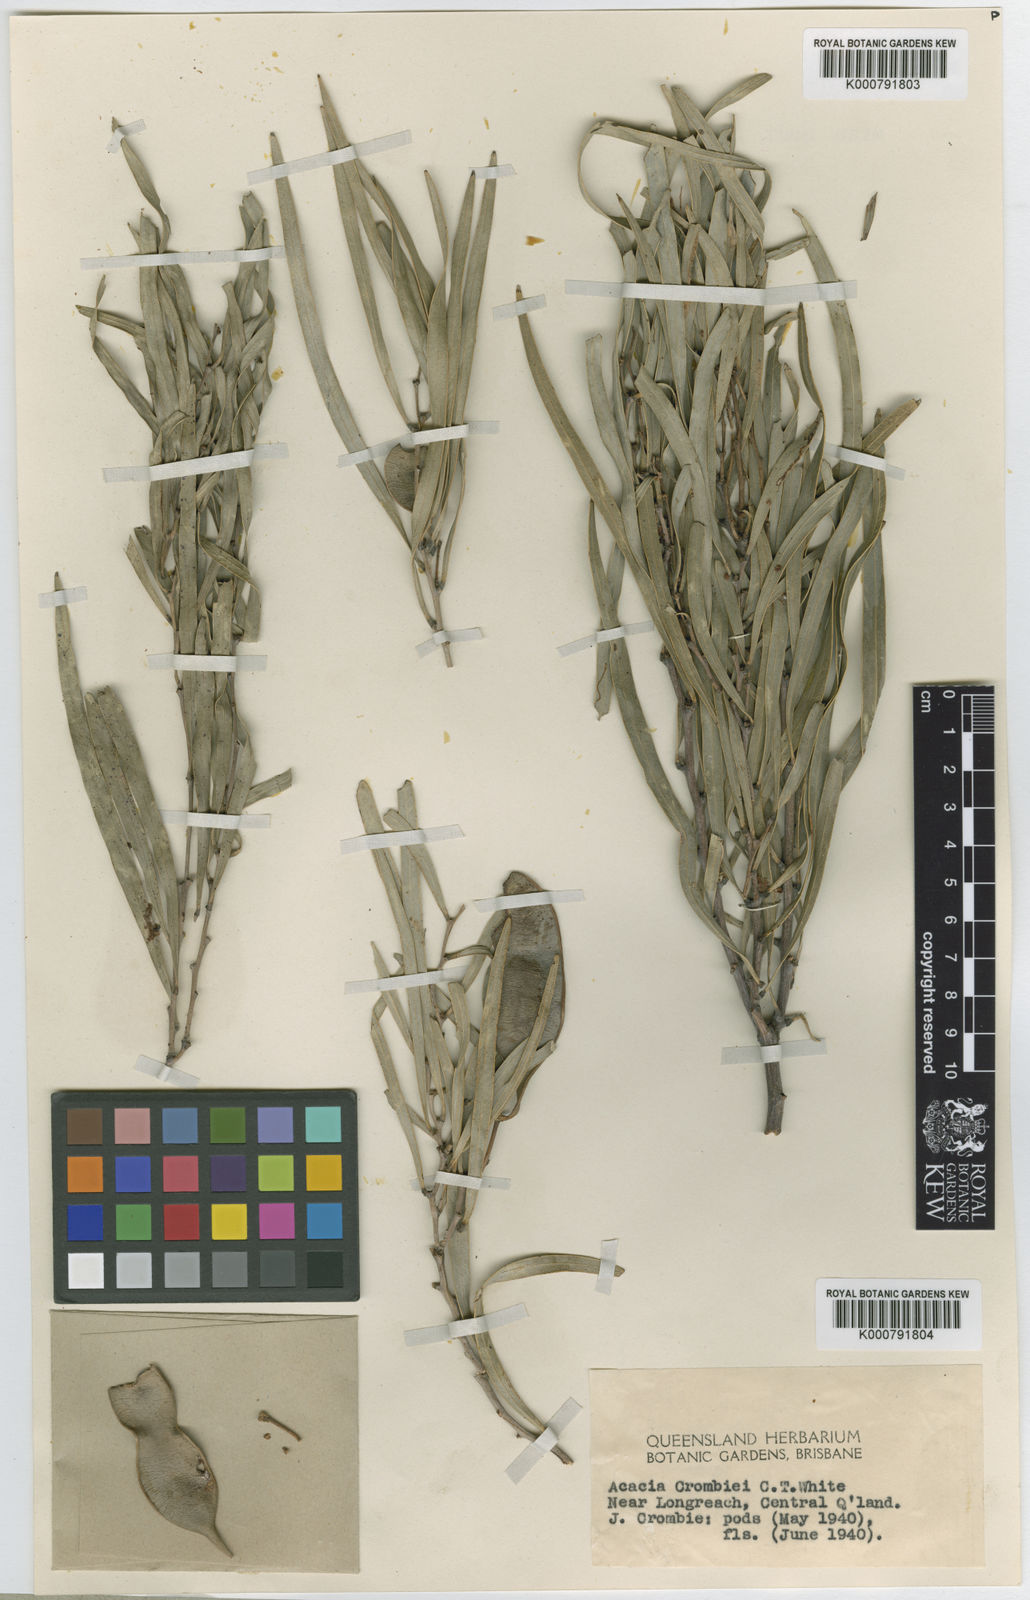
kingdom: Plantae
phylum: Tracheophyta
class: Magnoliopsida
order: Fabales
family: Fabaceae
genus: Acacia
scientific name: Acacia crombiei
